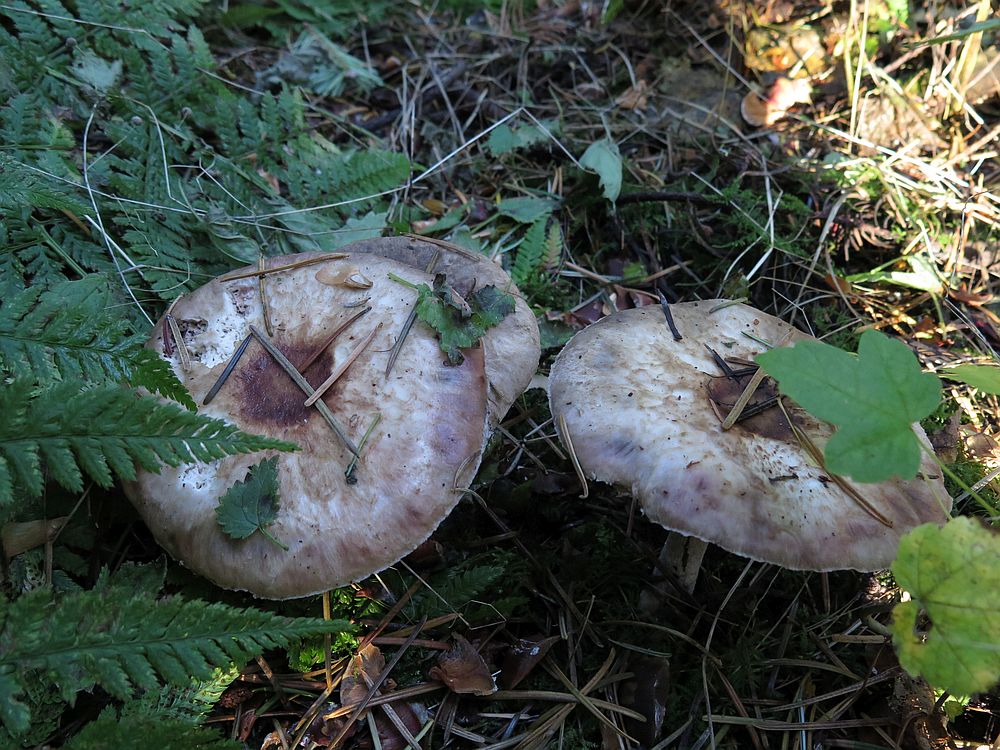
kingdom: Fungi
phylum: Basidiomycota
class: Agaricomycetes
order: Agaricales
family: Agaricaceae
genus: Agaricus
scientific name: Agaricus impudicus
